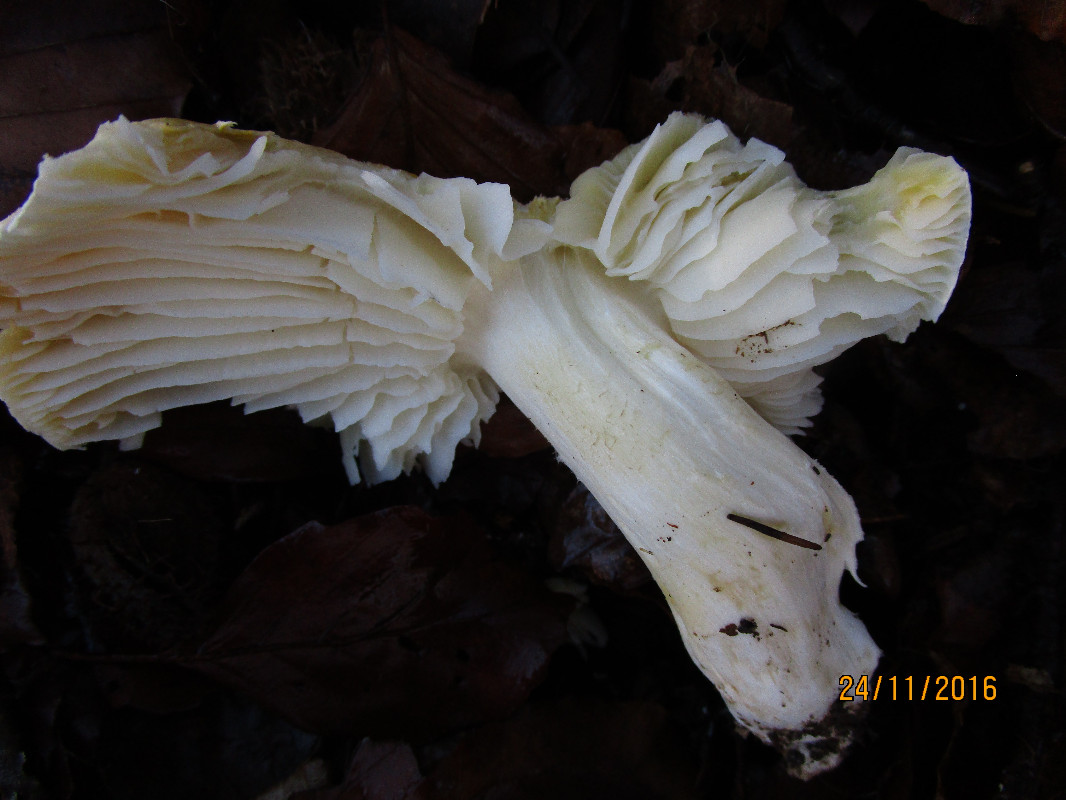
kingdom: Fungi
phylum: Basidiomycota
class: Agaricomycetes
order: Agaricales
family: Tricholomataceae
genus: Tricholoma
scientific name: Tricholoma sejunctum
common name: grøngul ridderhat
